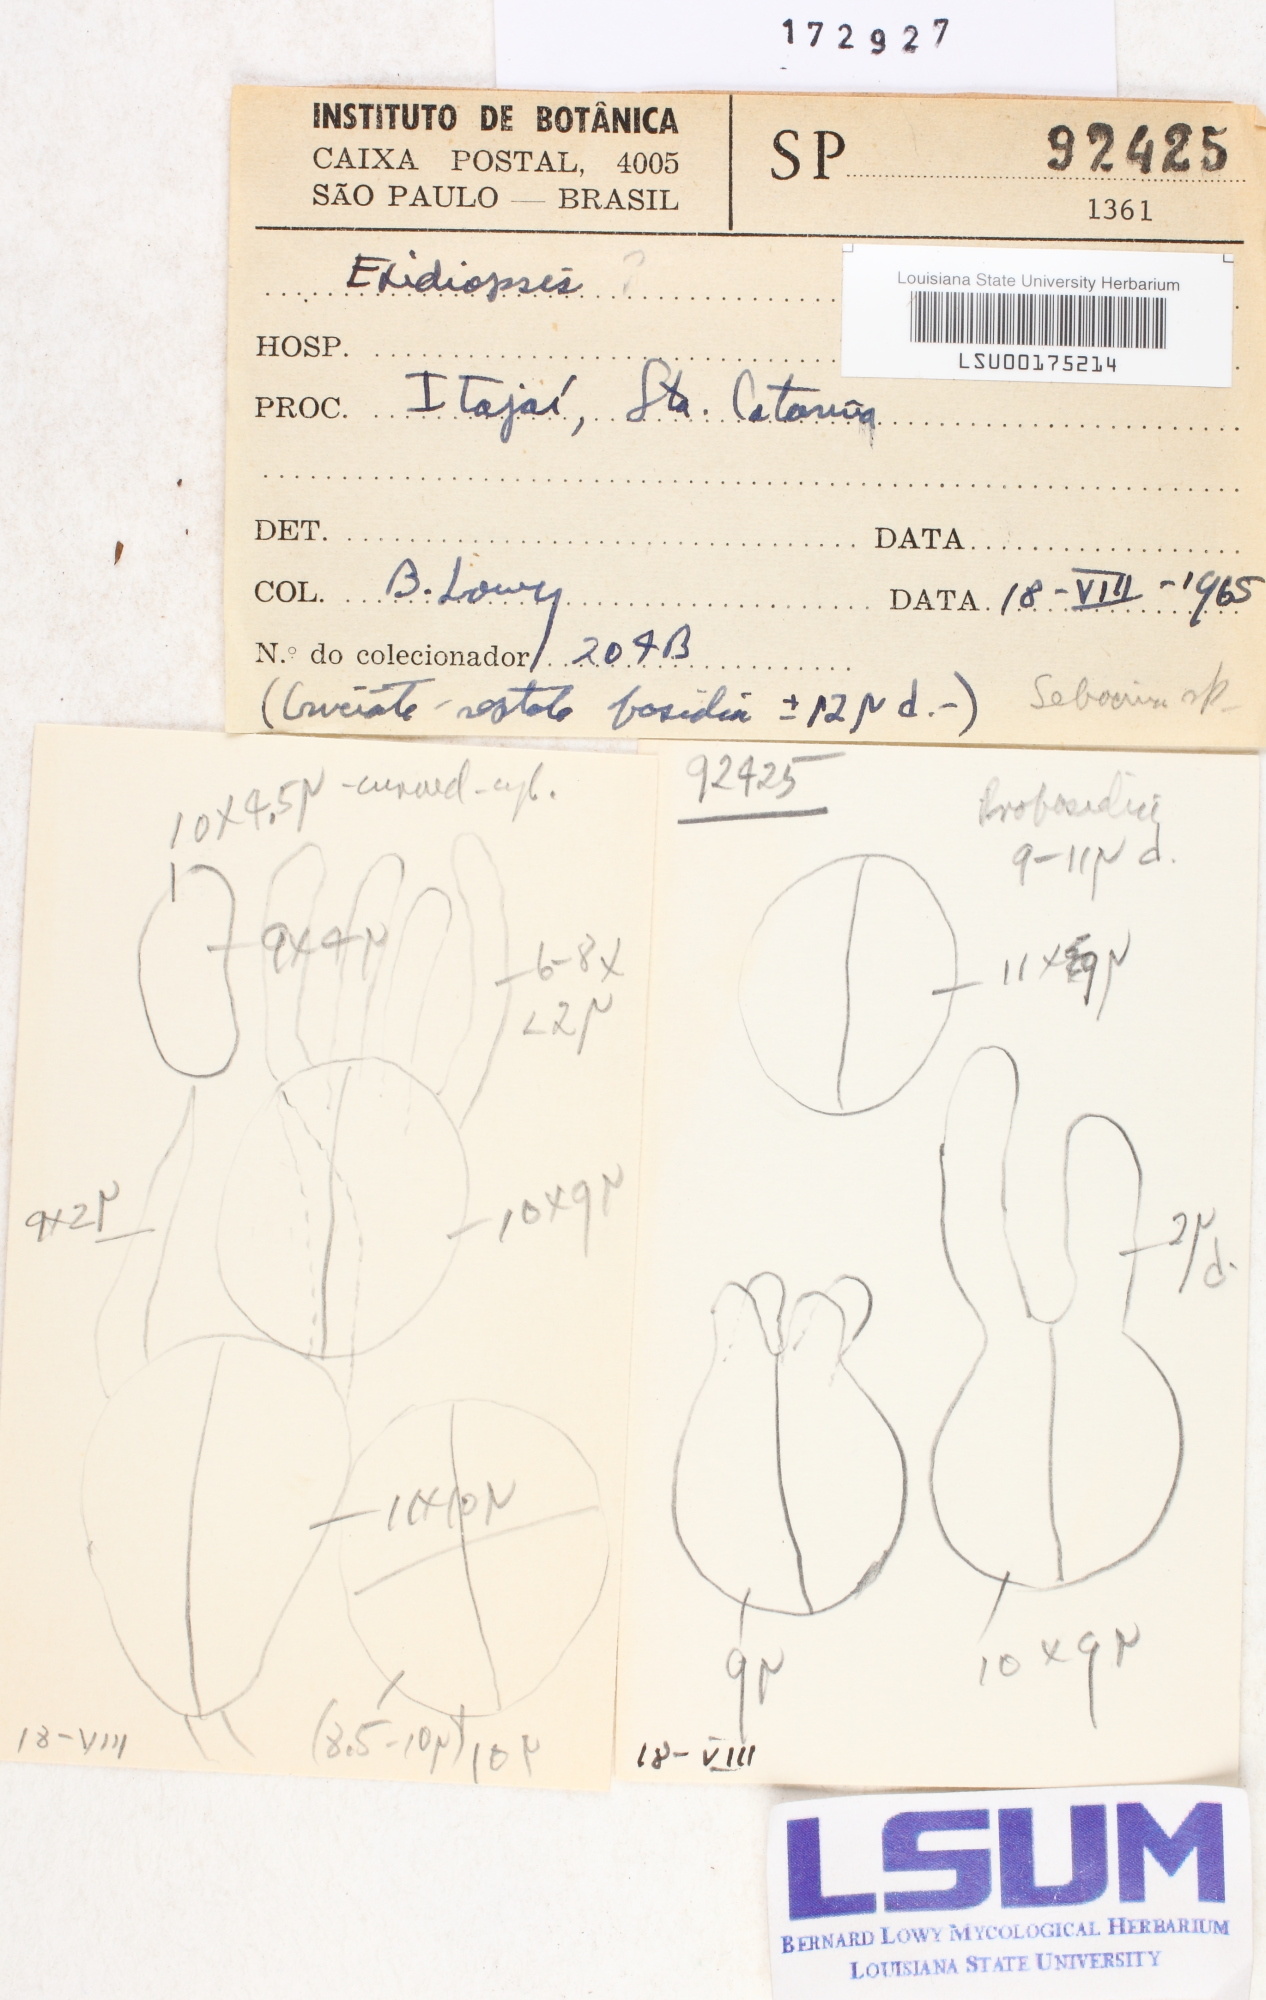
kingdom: Fungi
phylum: Basidiomycota
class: Agaricomycetes
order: Auriculariales
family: Auriculariaceae
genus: Exidiopsis
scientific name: Exidiopsis
